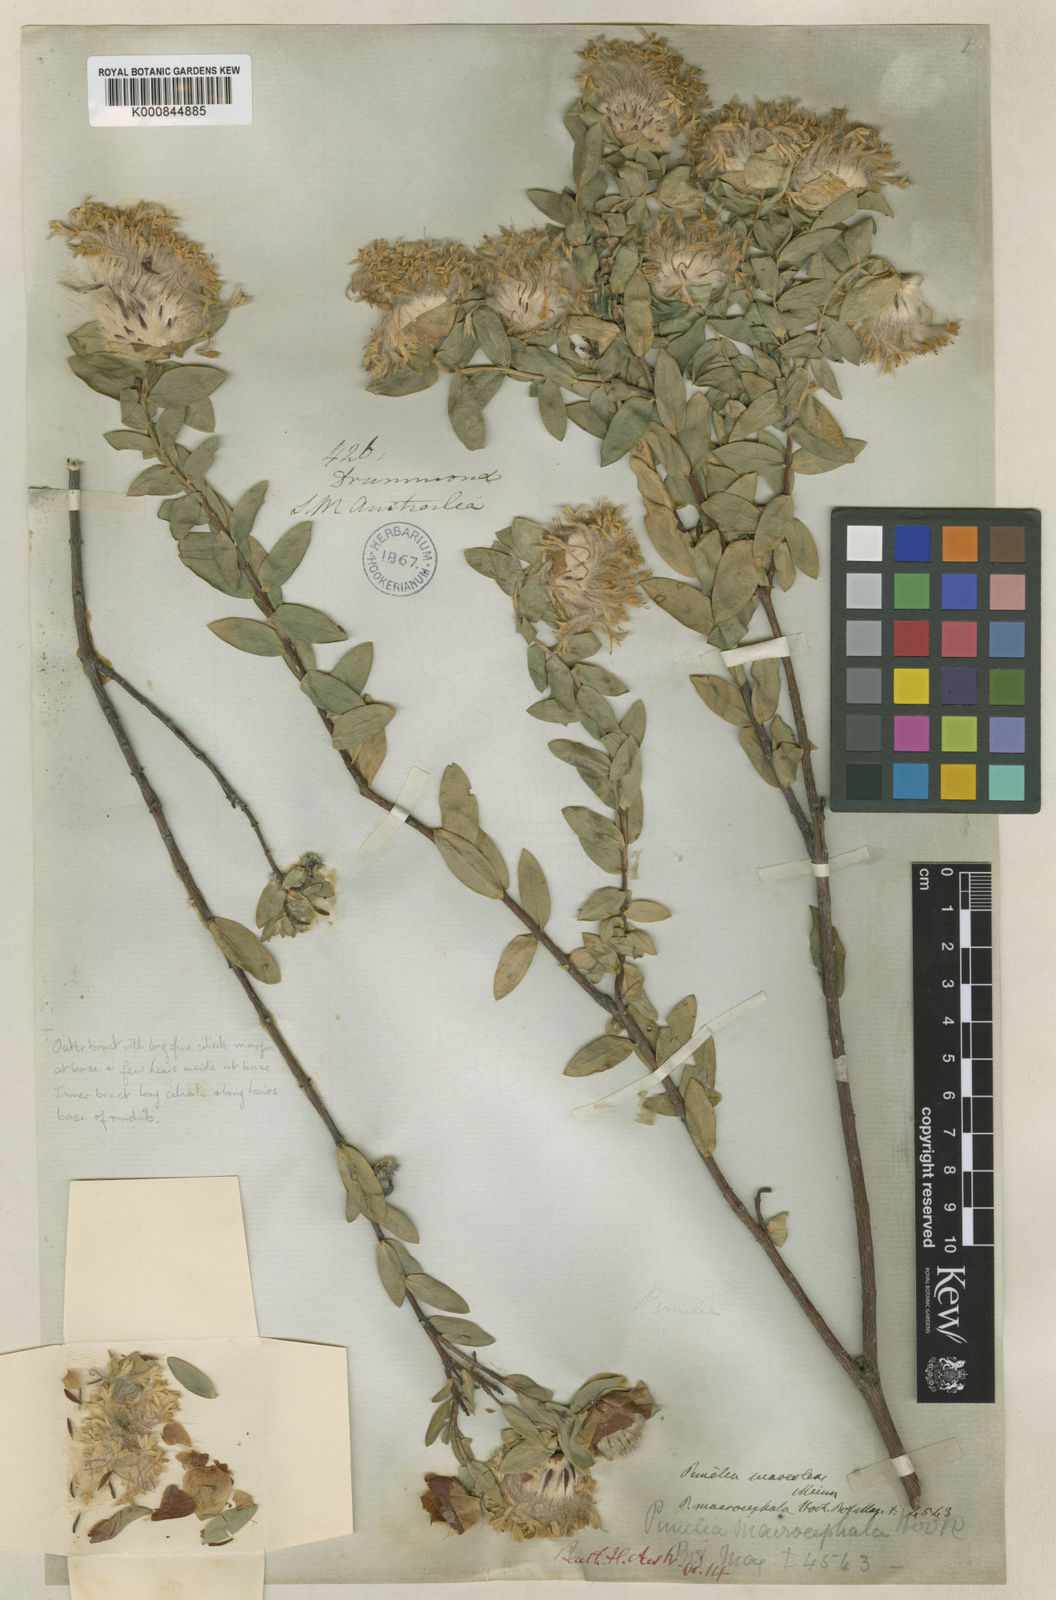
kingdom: Plantae
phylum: Tracheophyta
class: Magnoliopsida
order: Malvales
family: Thymelaeaceae
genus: Pimelea
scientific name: Pimelea suaveolens
